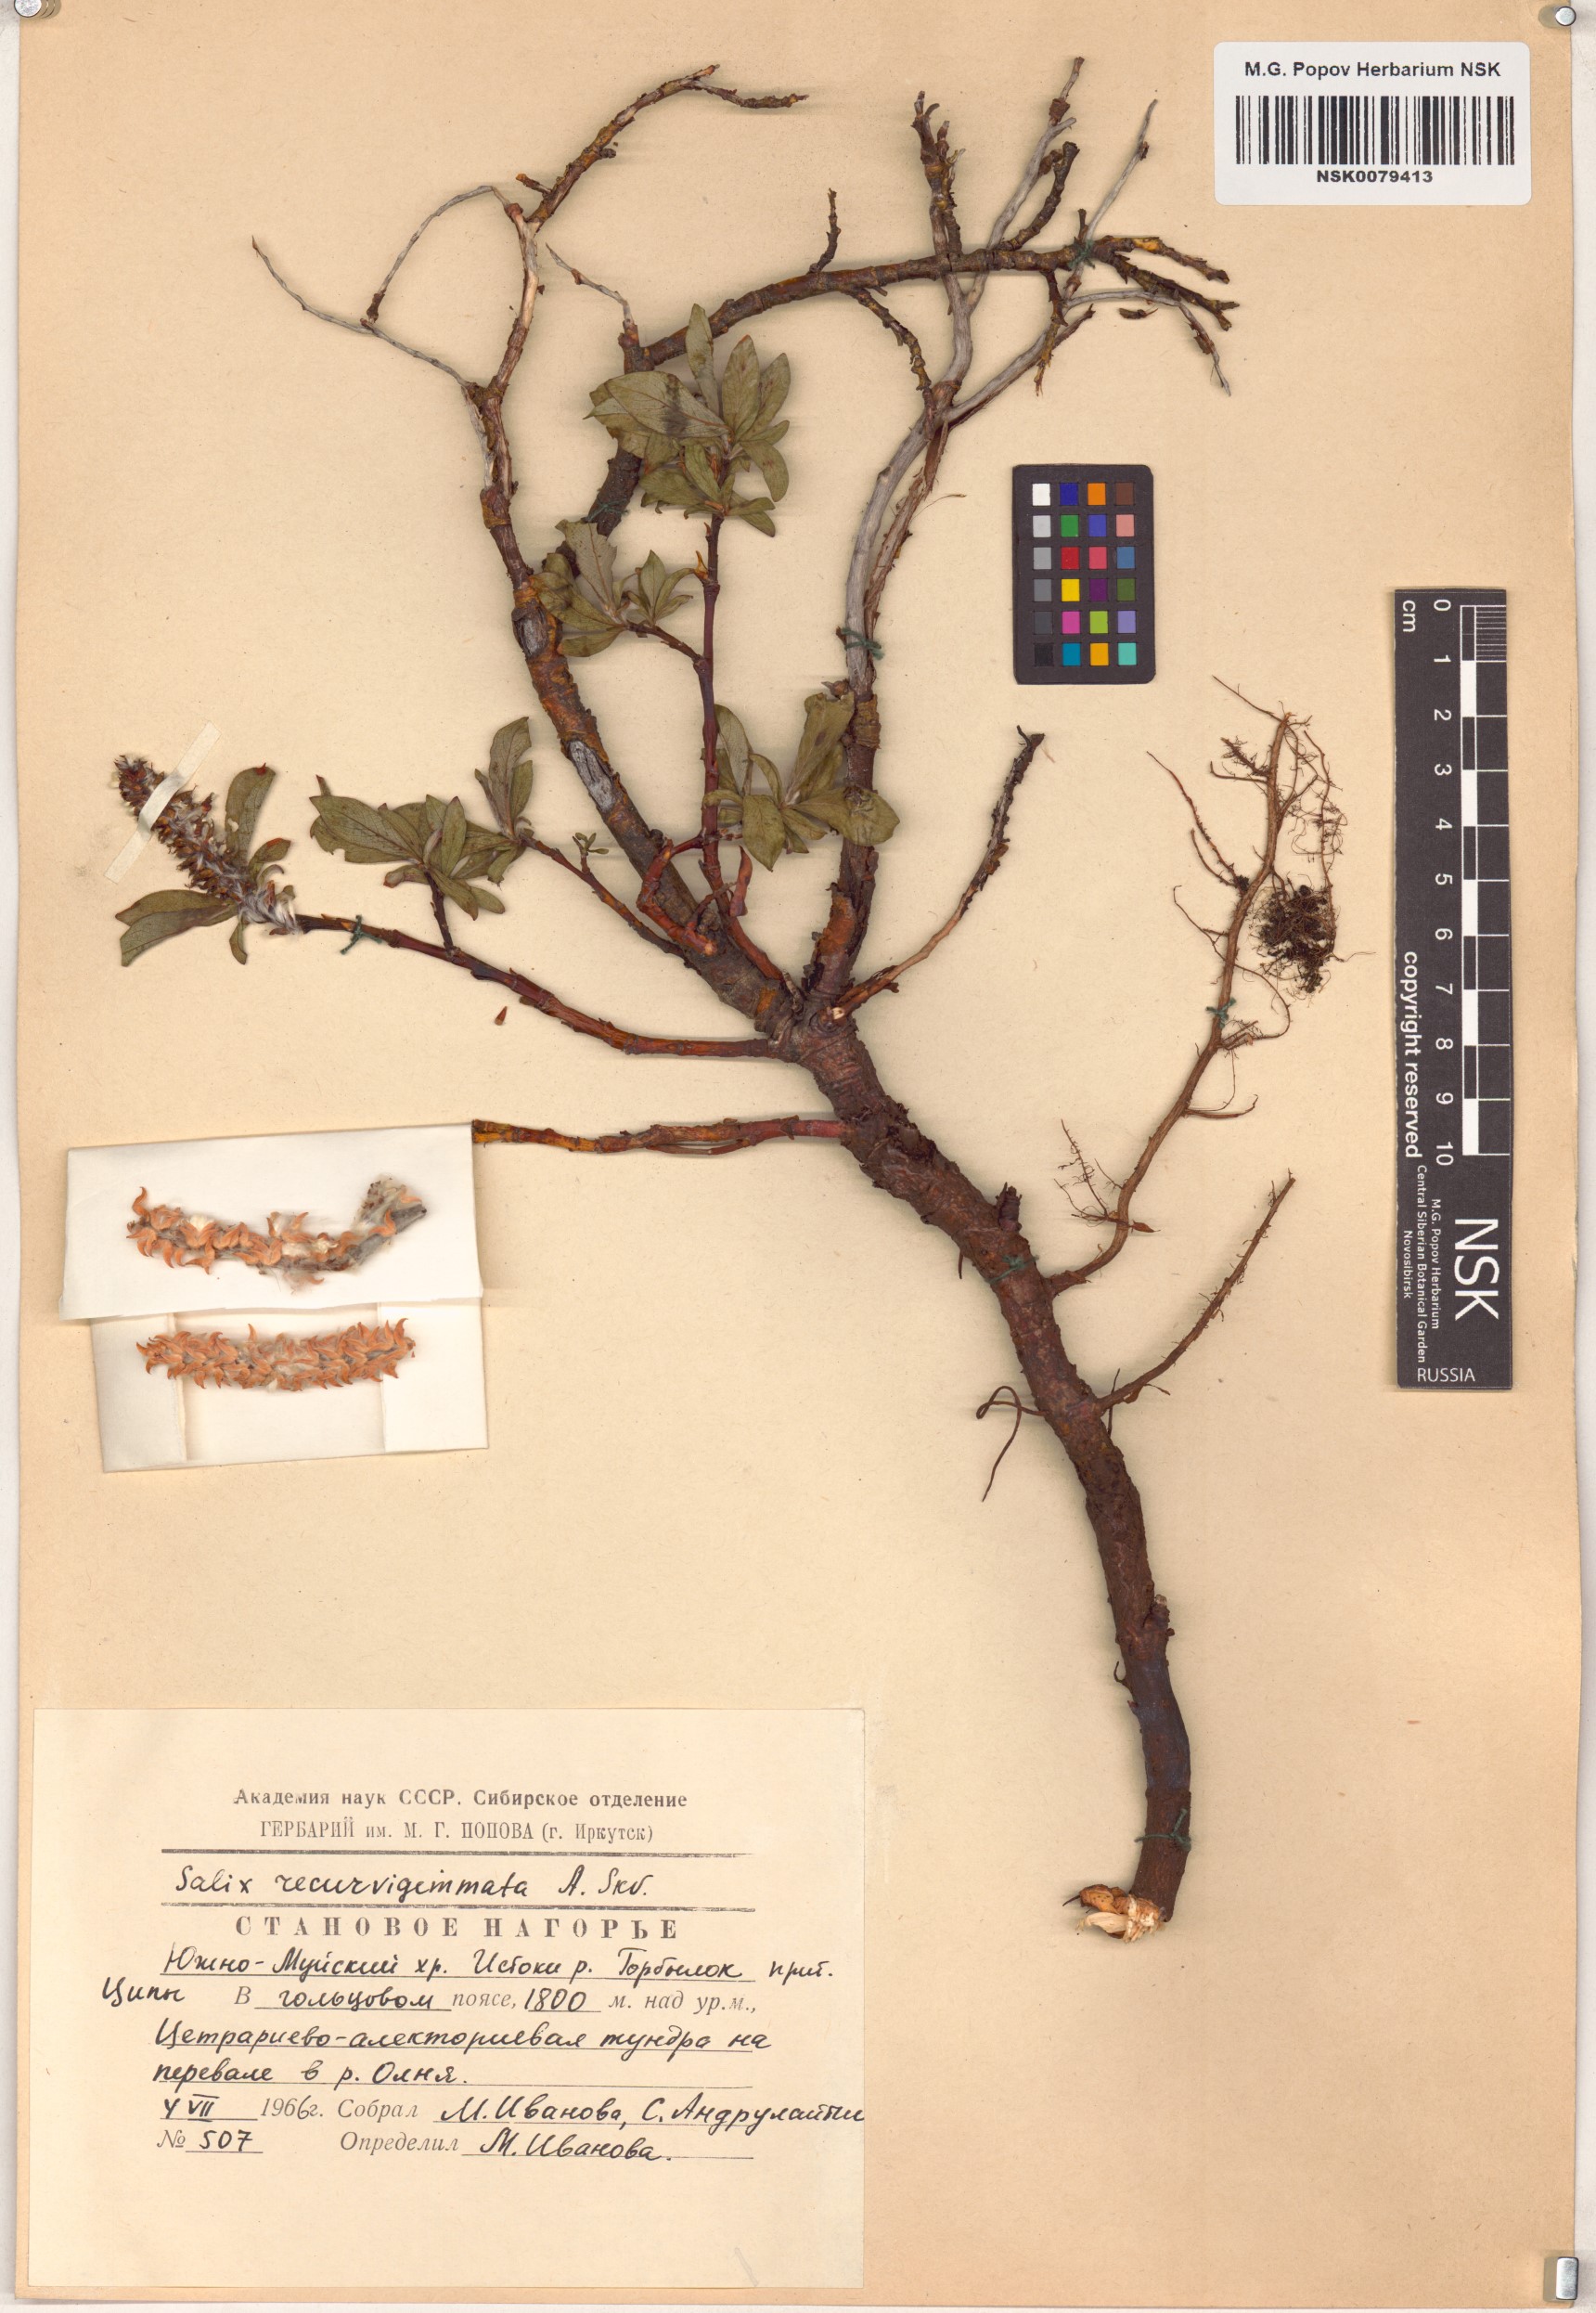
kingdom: Plantae
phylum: Tracheophyta
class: Magnoliopsida
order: Malpighiales
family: Salicaceae
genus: Salix
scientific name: Salix recurvigemmata
